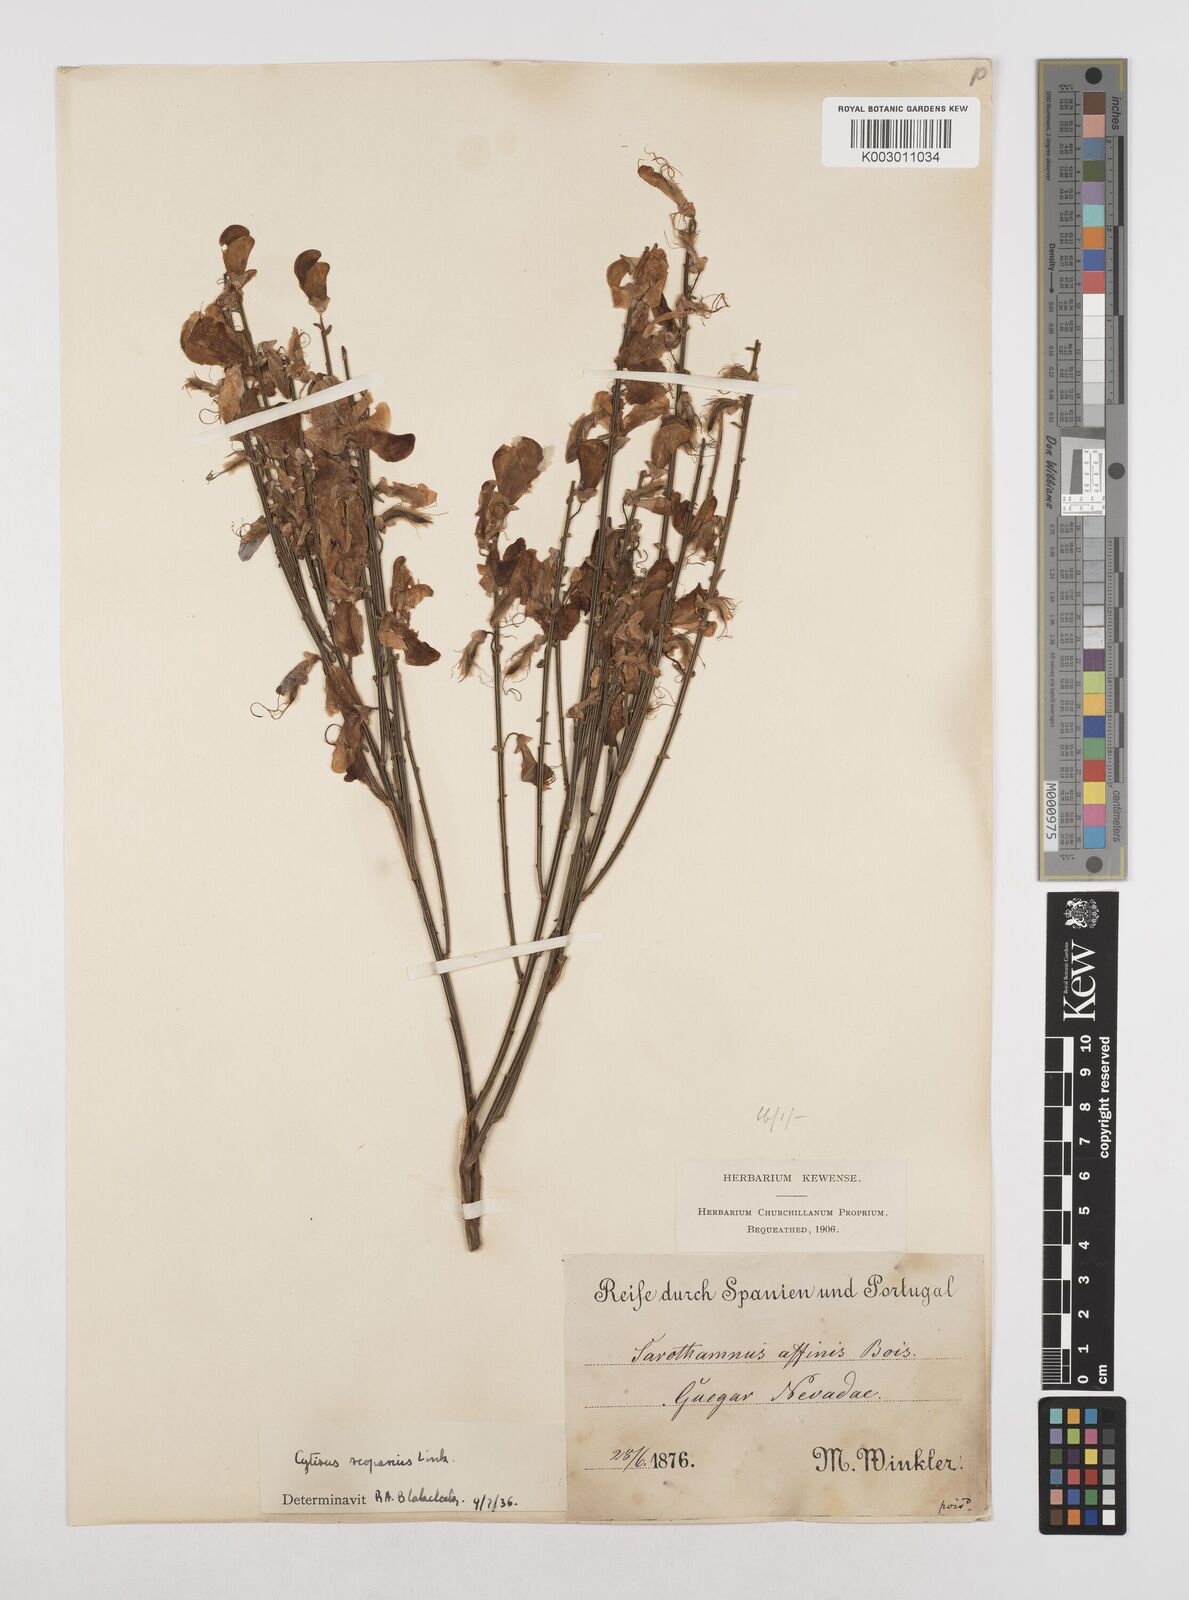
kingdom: Plantae
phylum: Tracheophyta
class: Magnoliopsida
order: Fabales
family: Fabaceae
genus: Cytisus
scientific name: Cytisus scoparius
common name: Scotch broom
